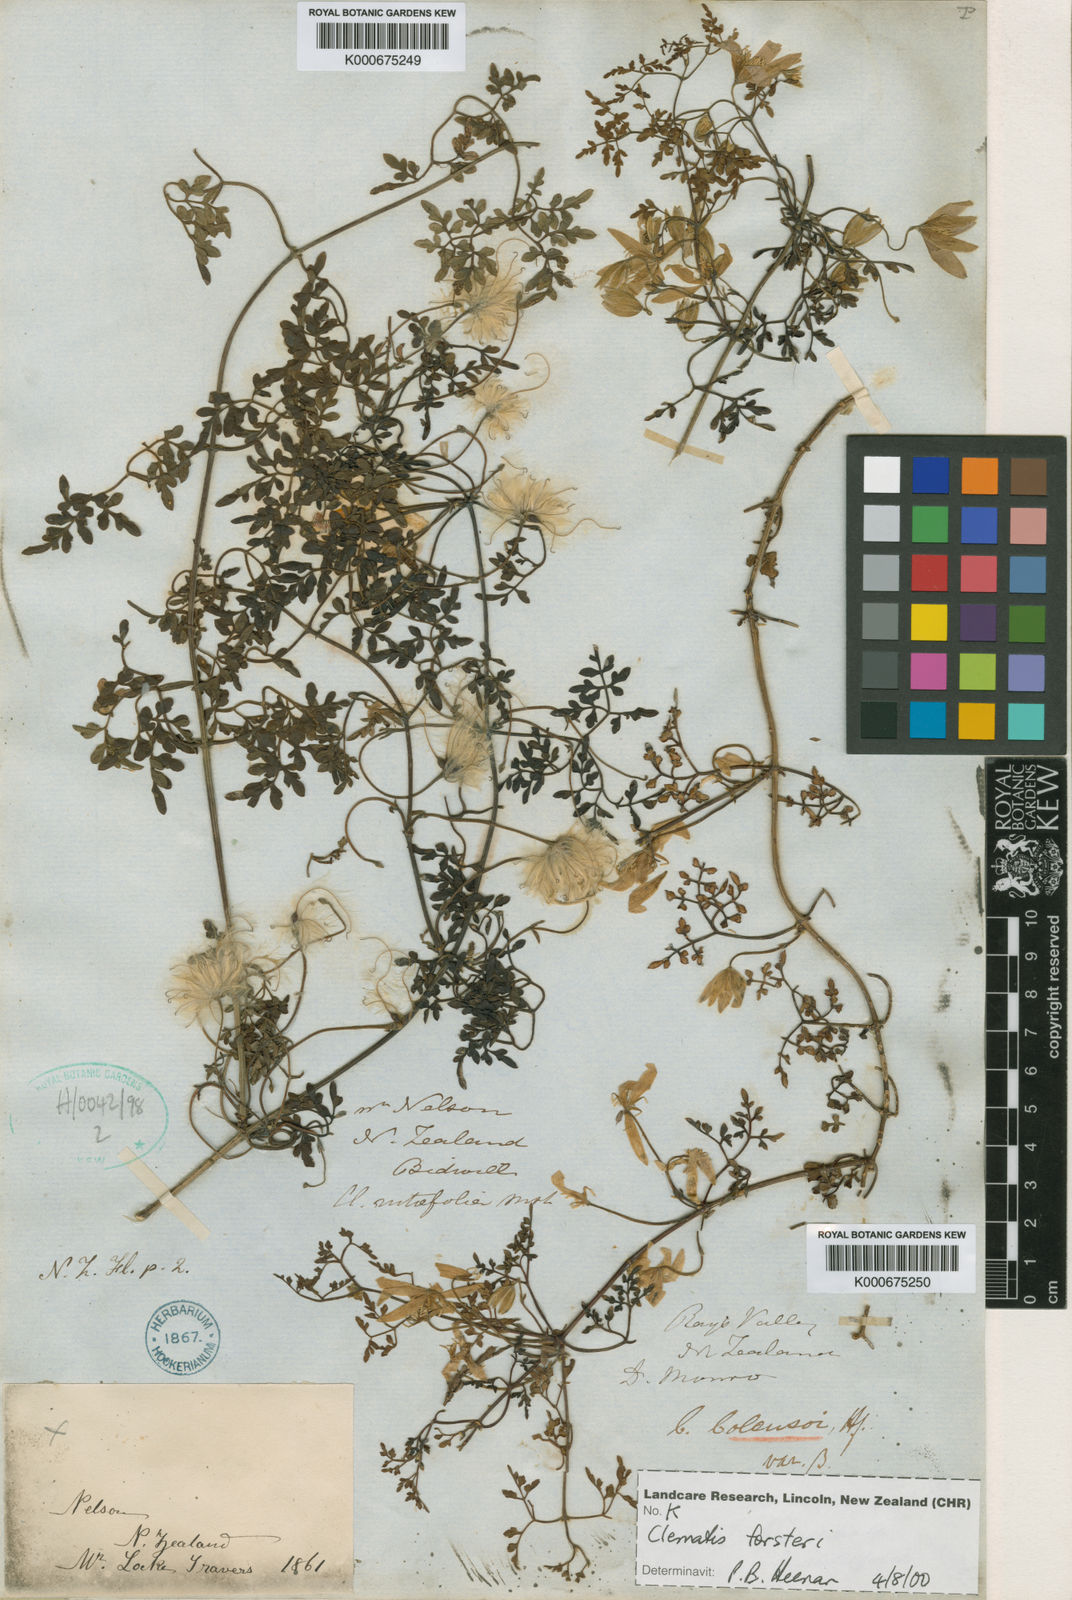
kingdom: Plantae
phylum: Tracheophyta
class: Magnoliopsida
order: Ranunculales
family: Ranunculaceae
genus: Clematis
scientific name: Clematis forsteri
